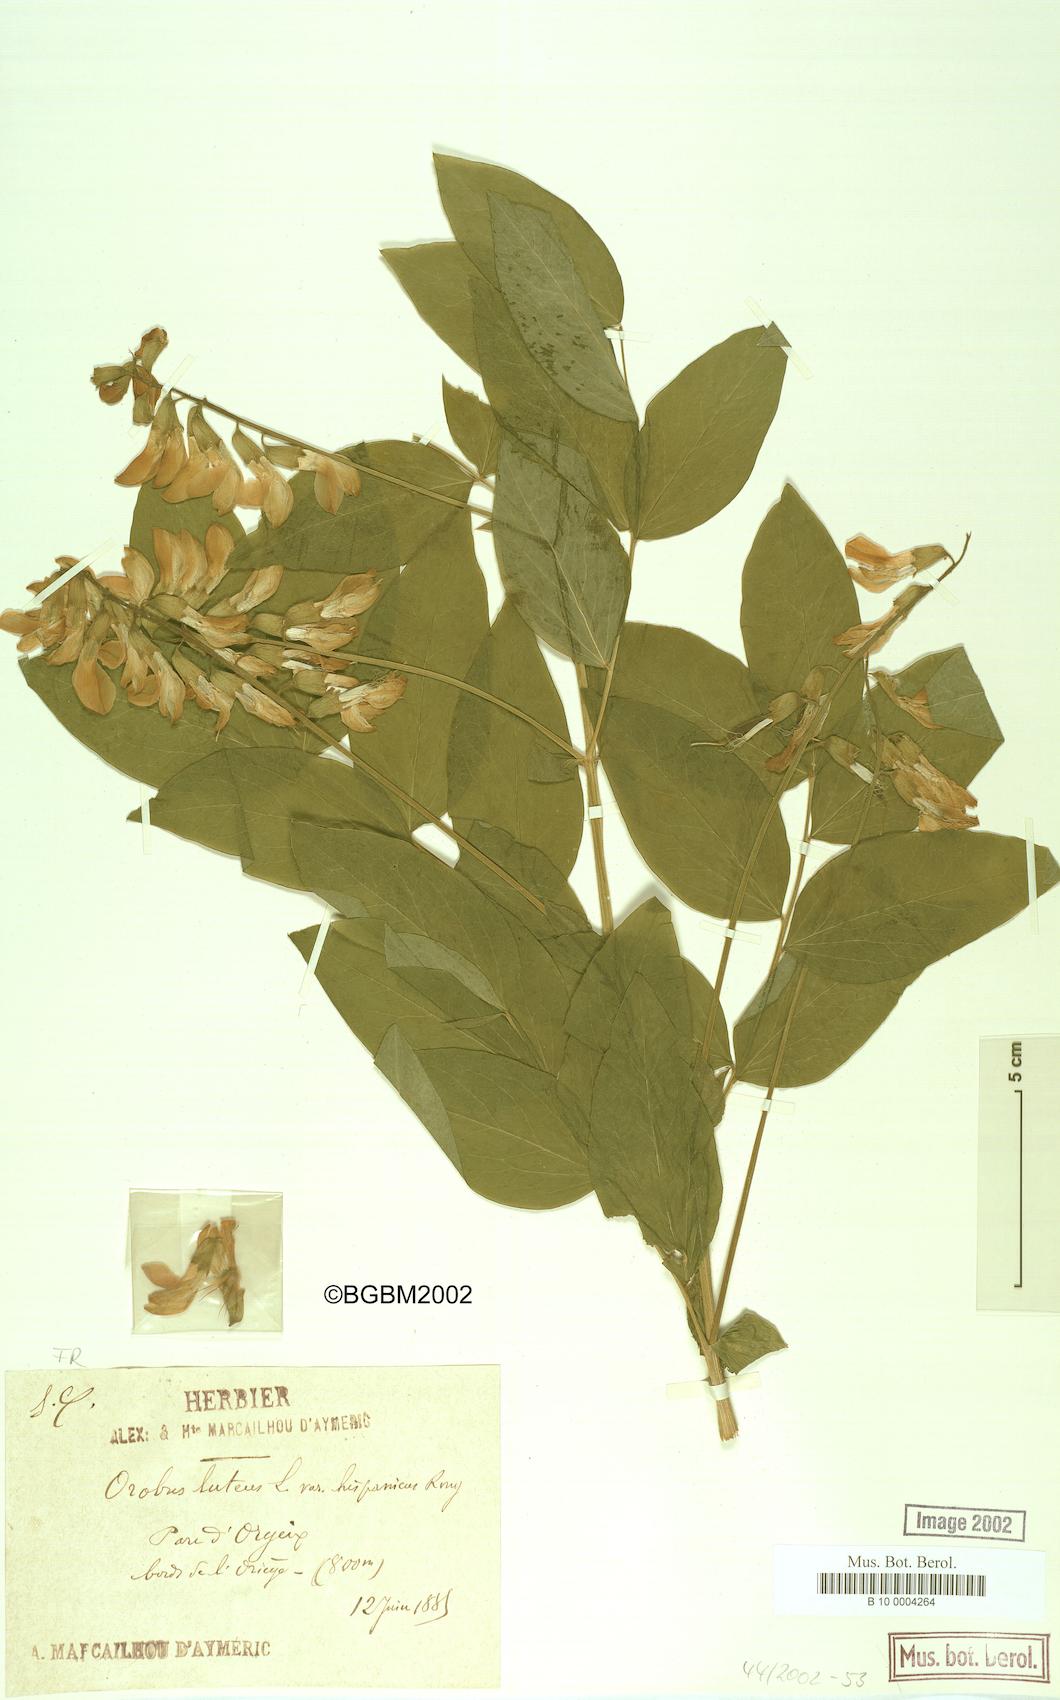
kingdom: Plantae
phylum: Tracheophyta
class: Magnoliopsida
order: Fabales
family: Fabaceae
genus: Lathyrus
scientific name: Lathyrus gmelinii
